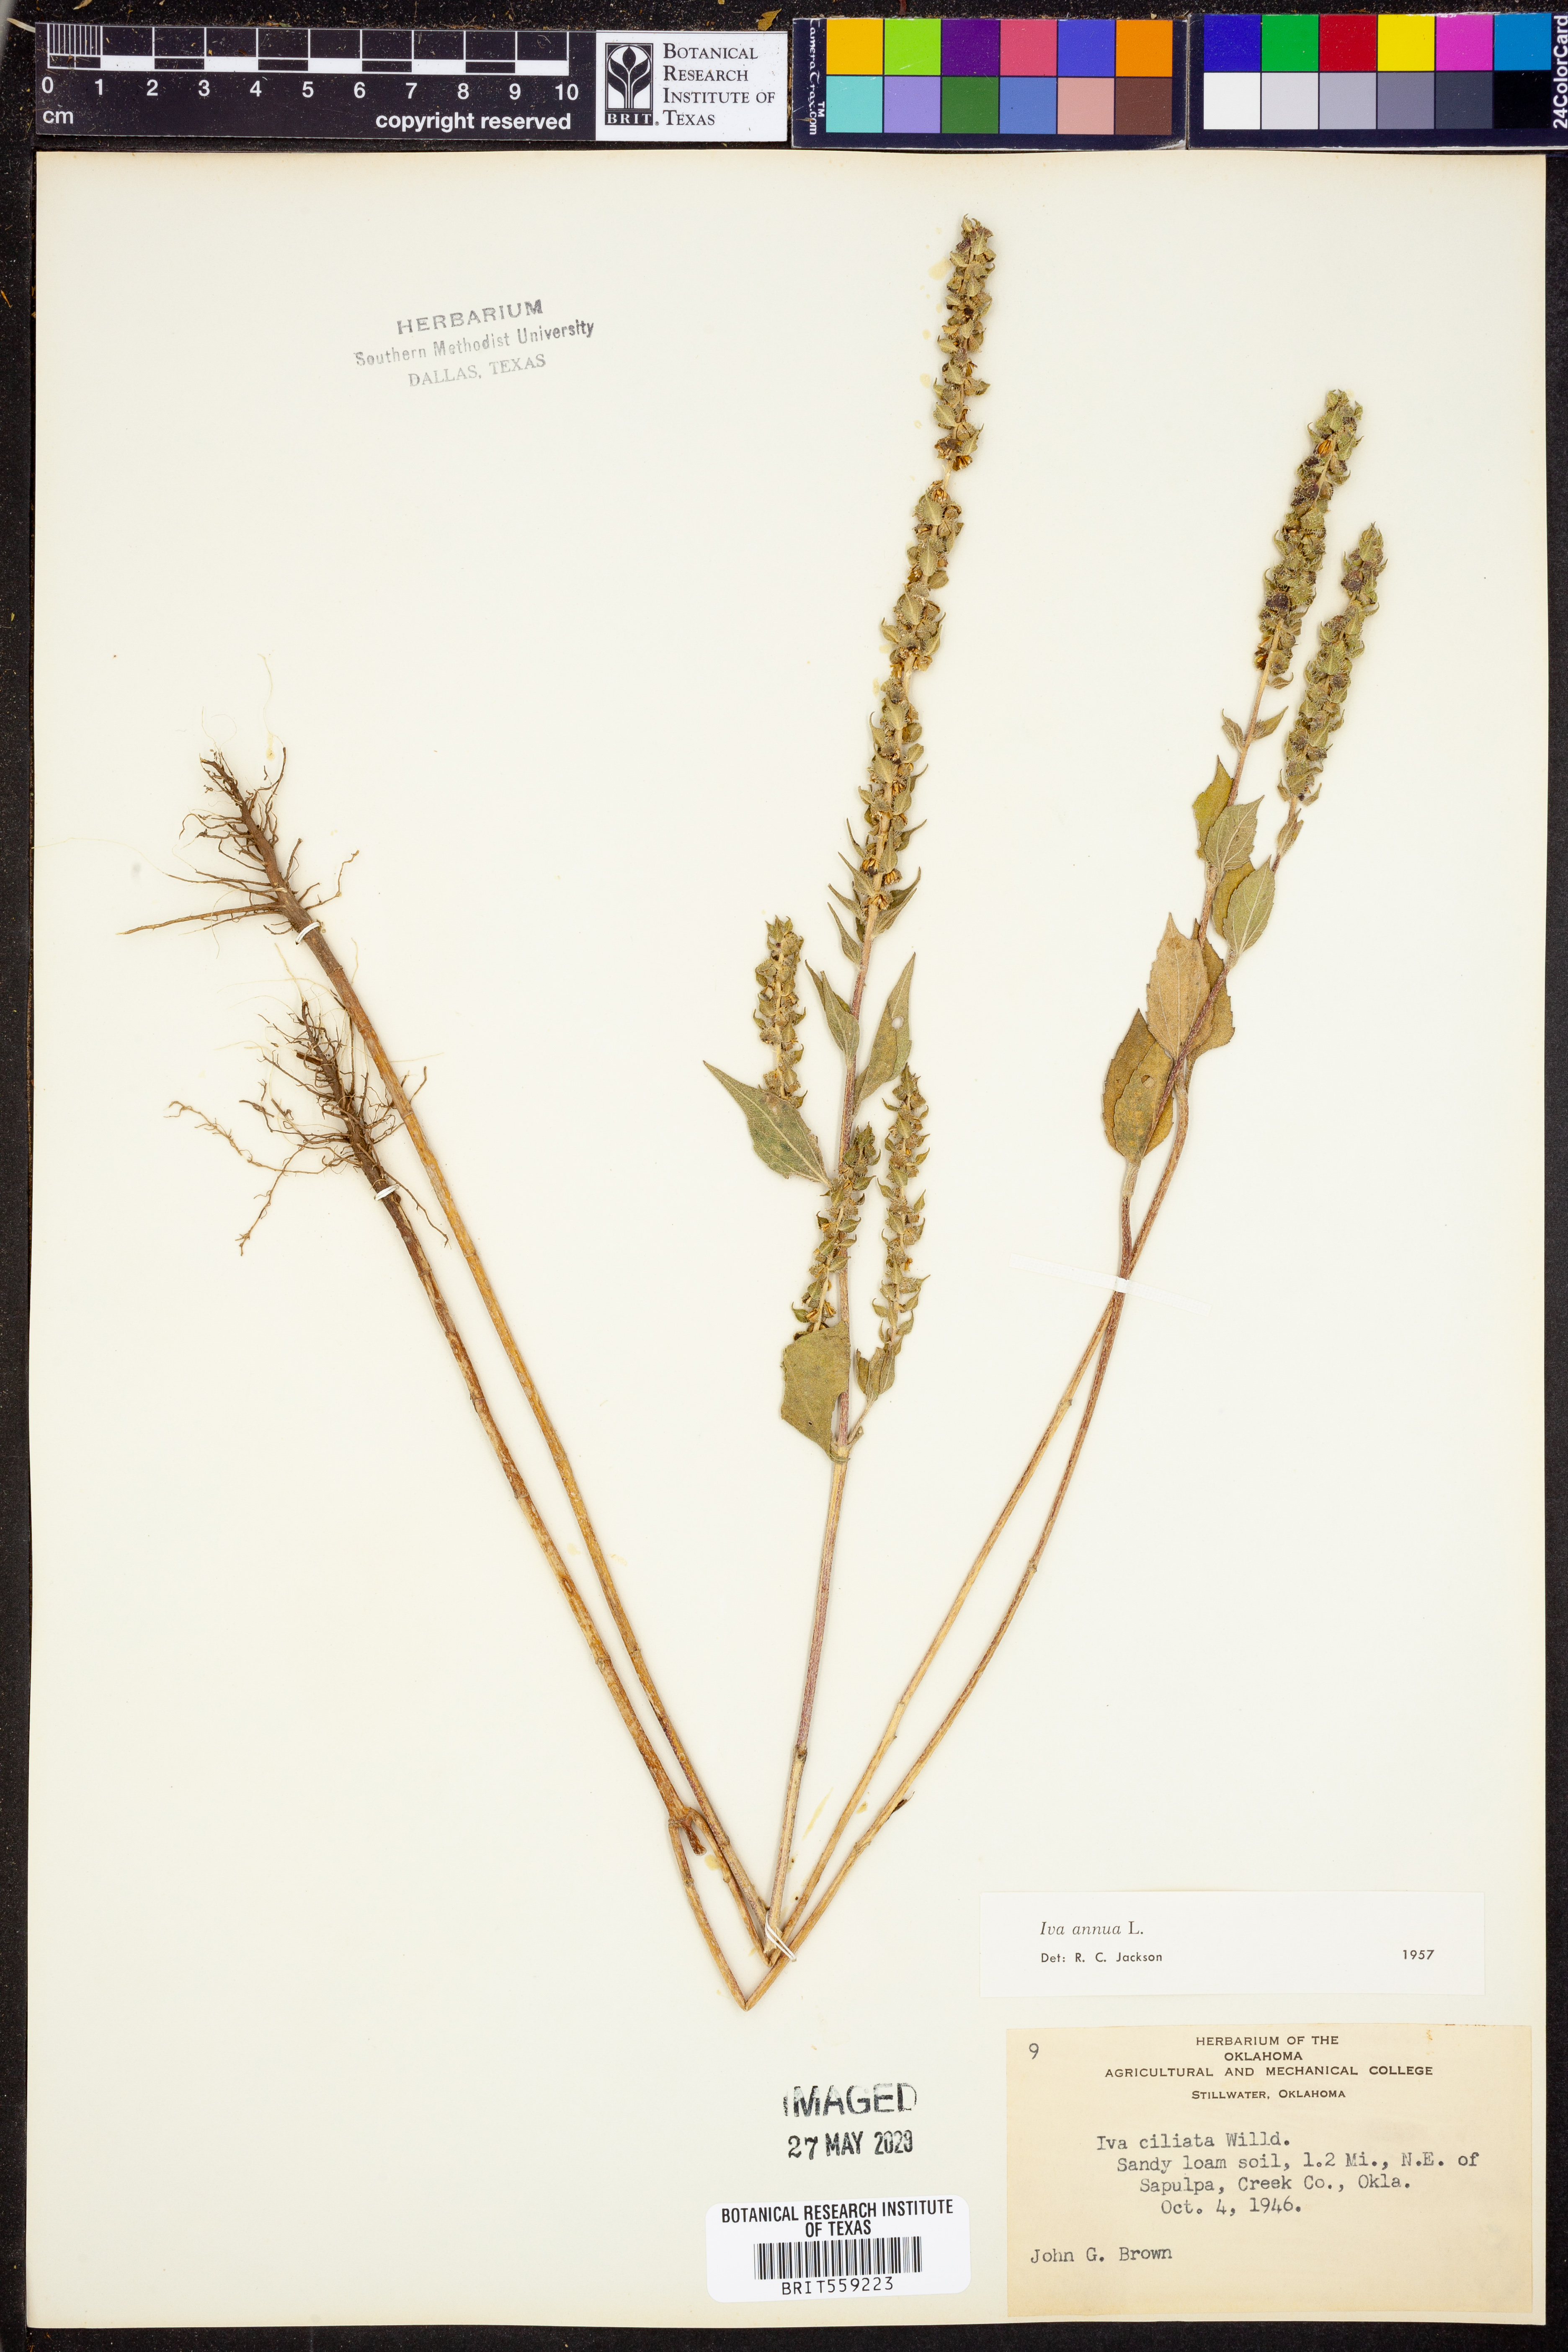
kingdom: Plantae
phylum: Tracheophyta
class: Magnoliopsida
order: Asterales
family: Asteraceae
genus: Iva
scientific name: Iva annua
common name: Marsh-elder
